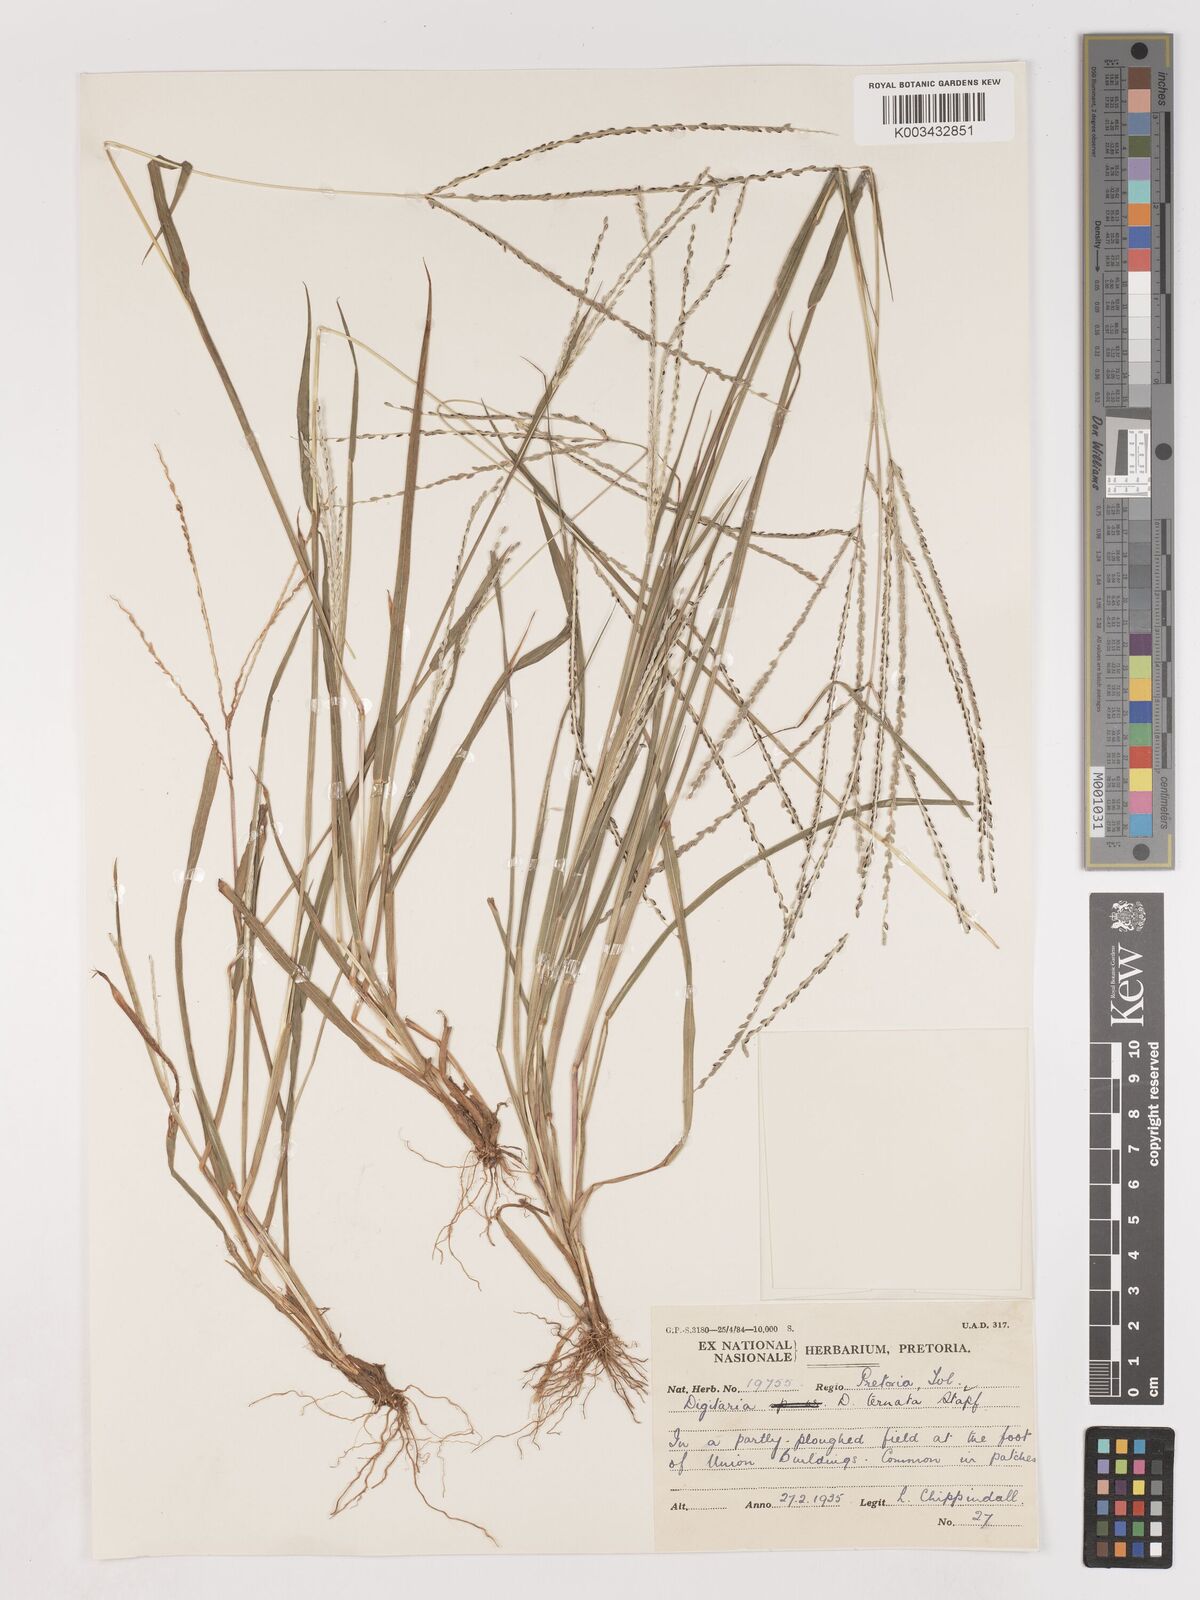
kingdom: Plantae
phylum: Tracheophyta
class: Liliopsida
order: Poales
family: Poaceae
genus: Digitaria
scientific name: Digitaria ternata
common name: Blackseed crabgrass
